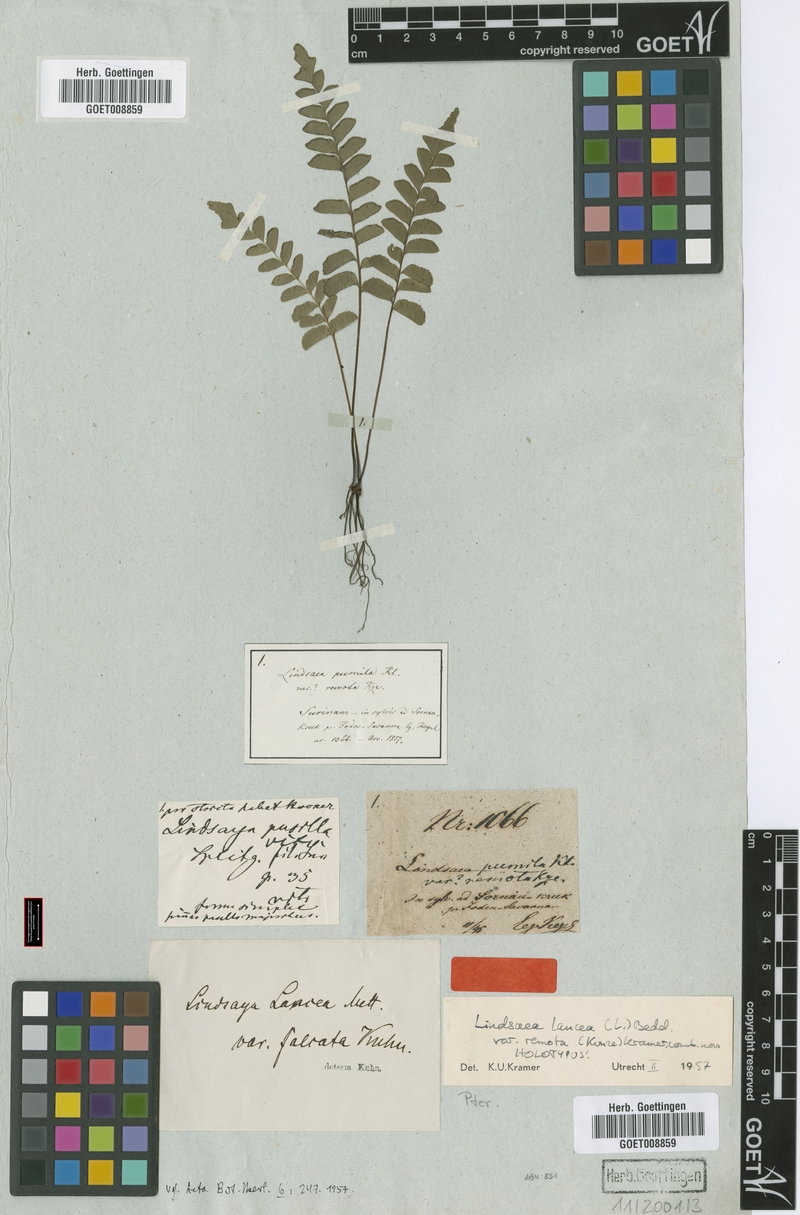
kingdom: Plantae
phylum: Tracheophyta
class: Polypodiopsida
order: Polypodiales
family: Lindsaeaceae
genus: Lindsaea
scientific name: Lindsaea lancea
